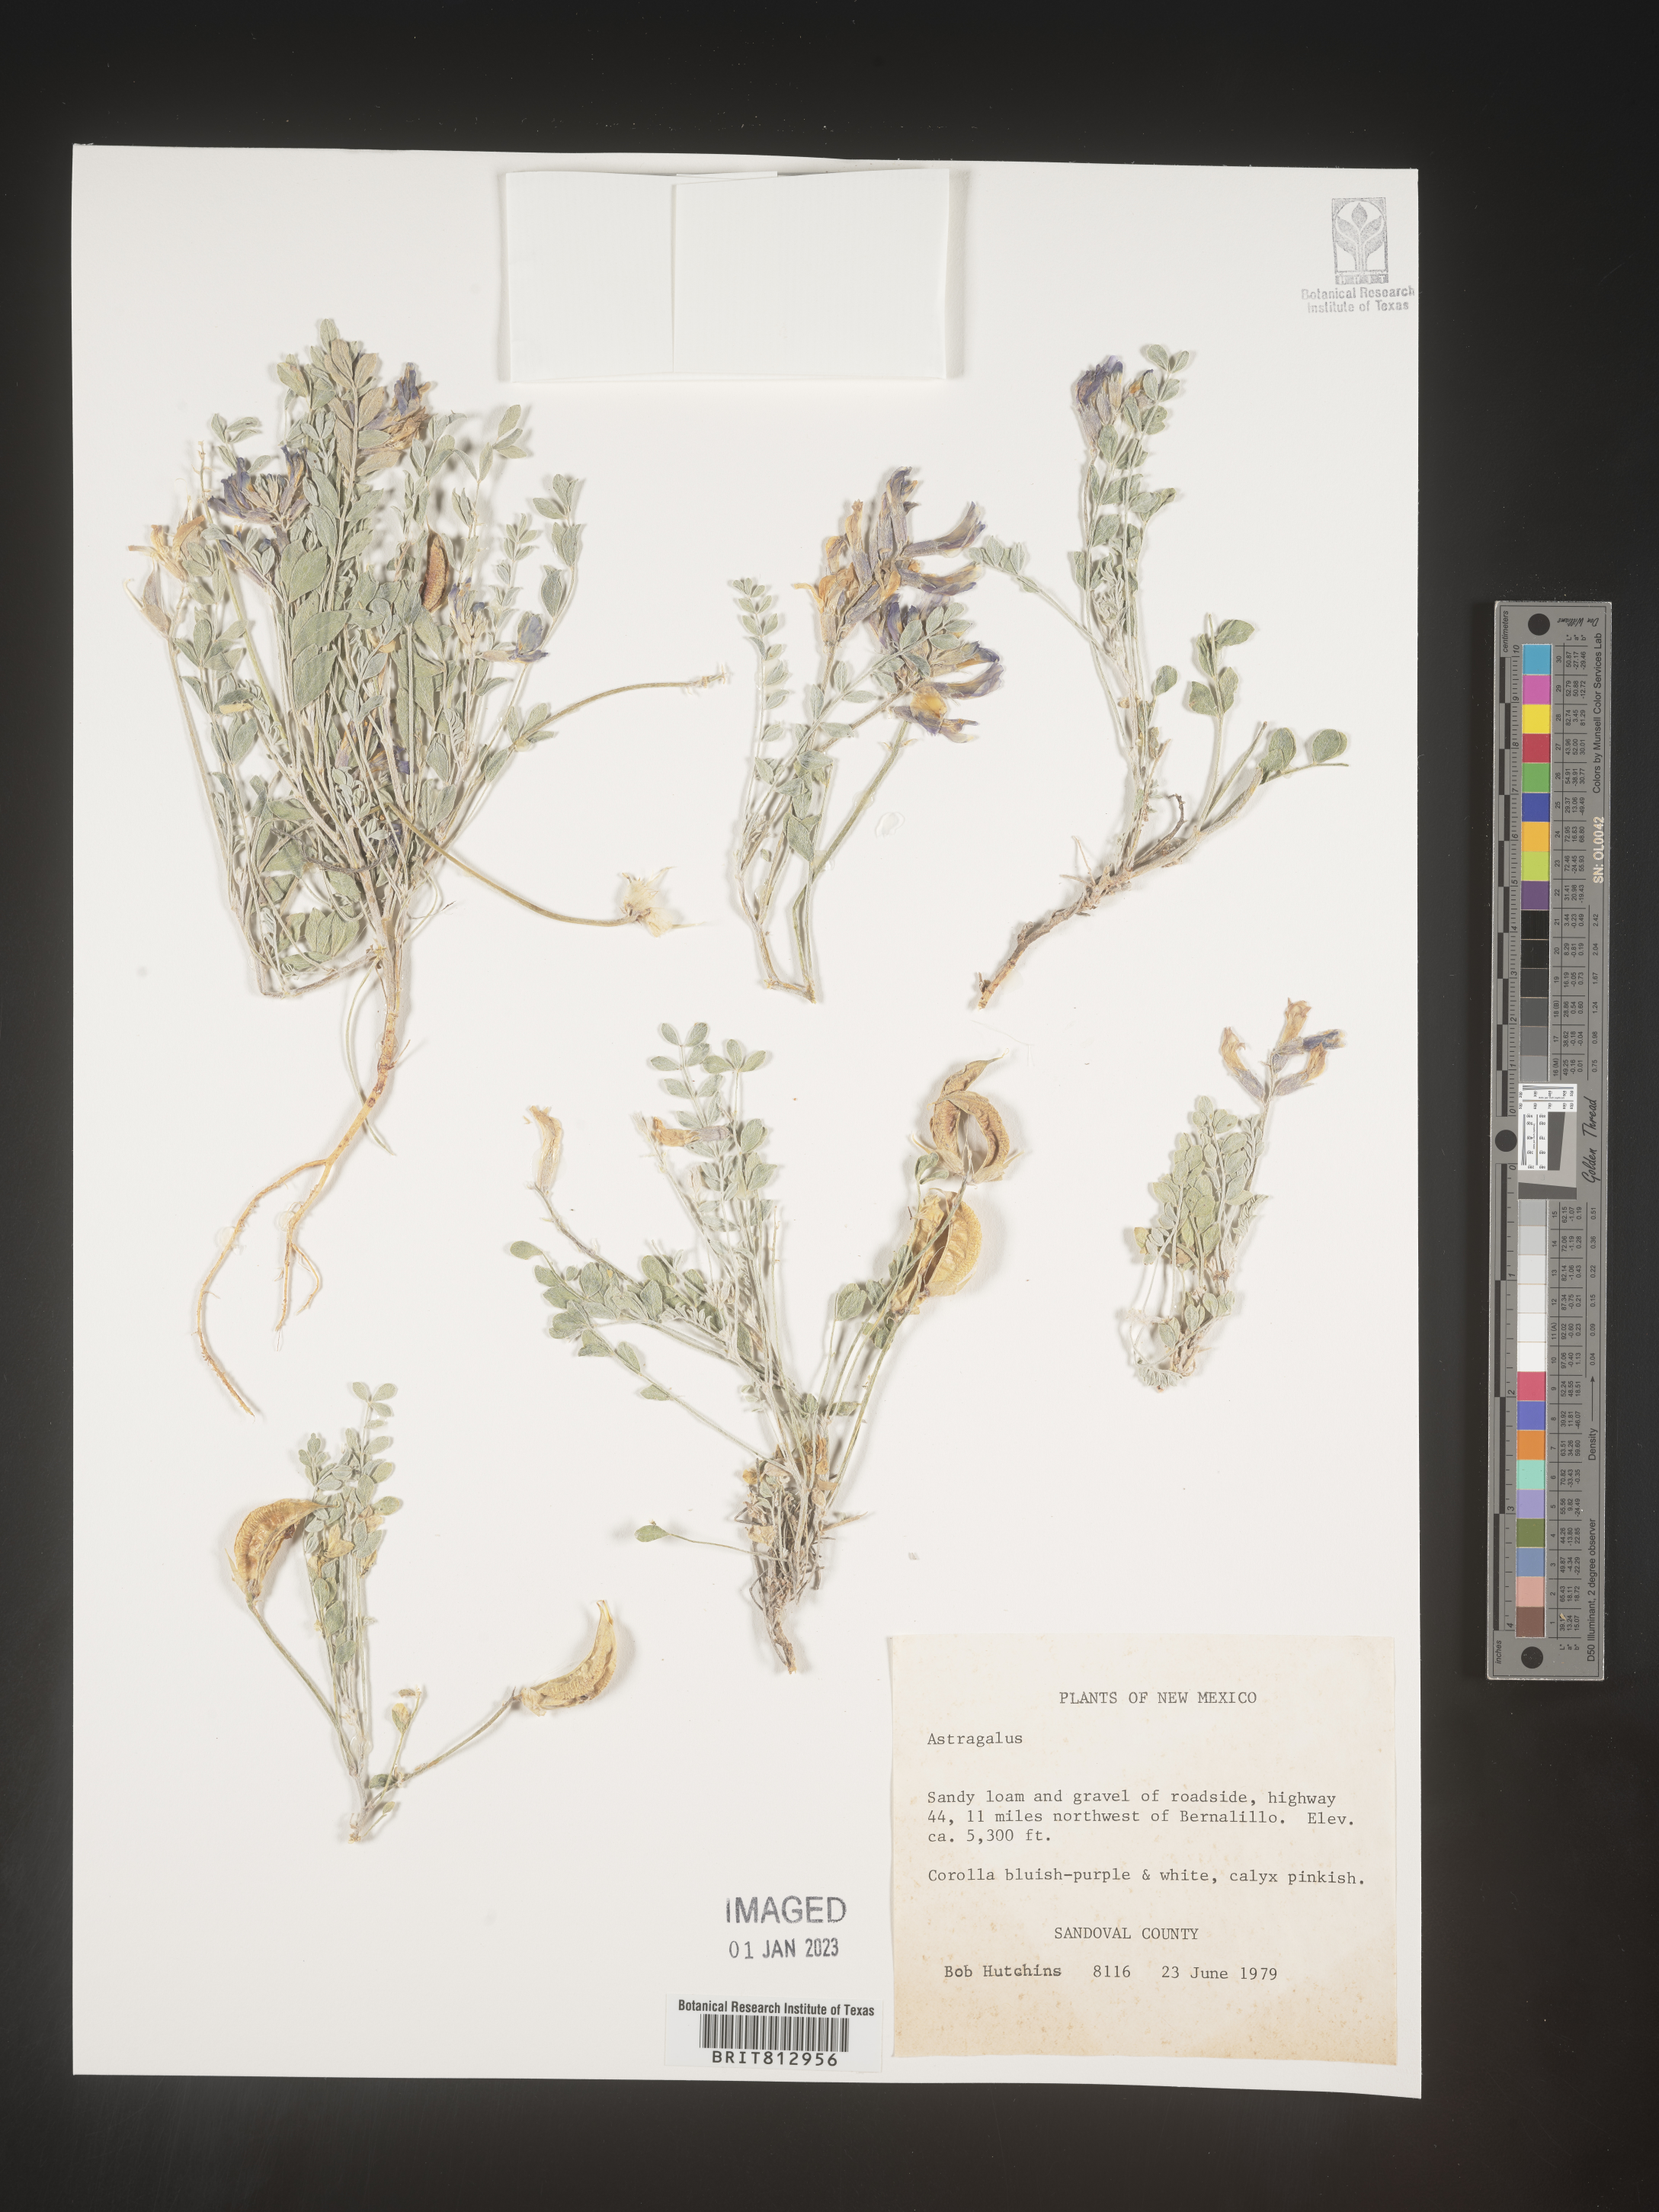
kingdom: Plantae
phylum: Tracheophyta
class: Magnoliopsida
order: Fabales
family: Fabaceae
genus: Astragalus
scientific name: Astragalus
